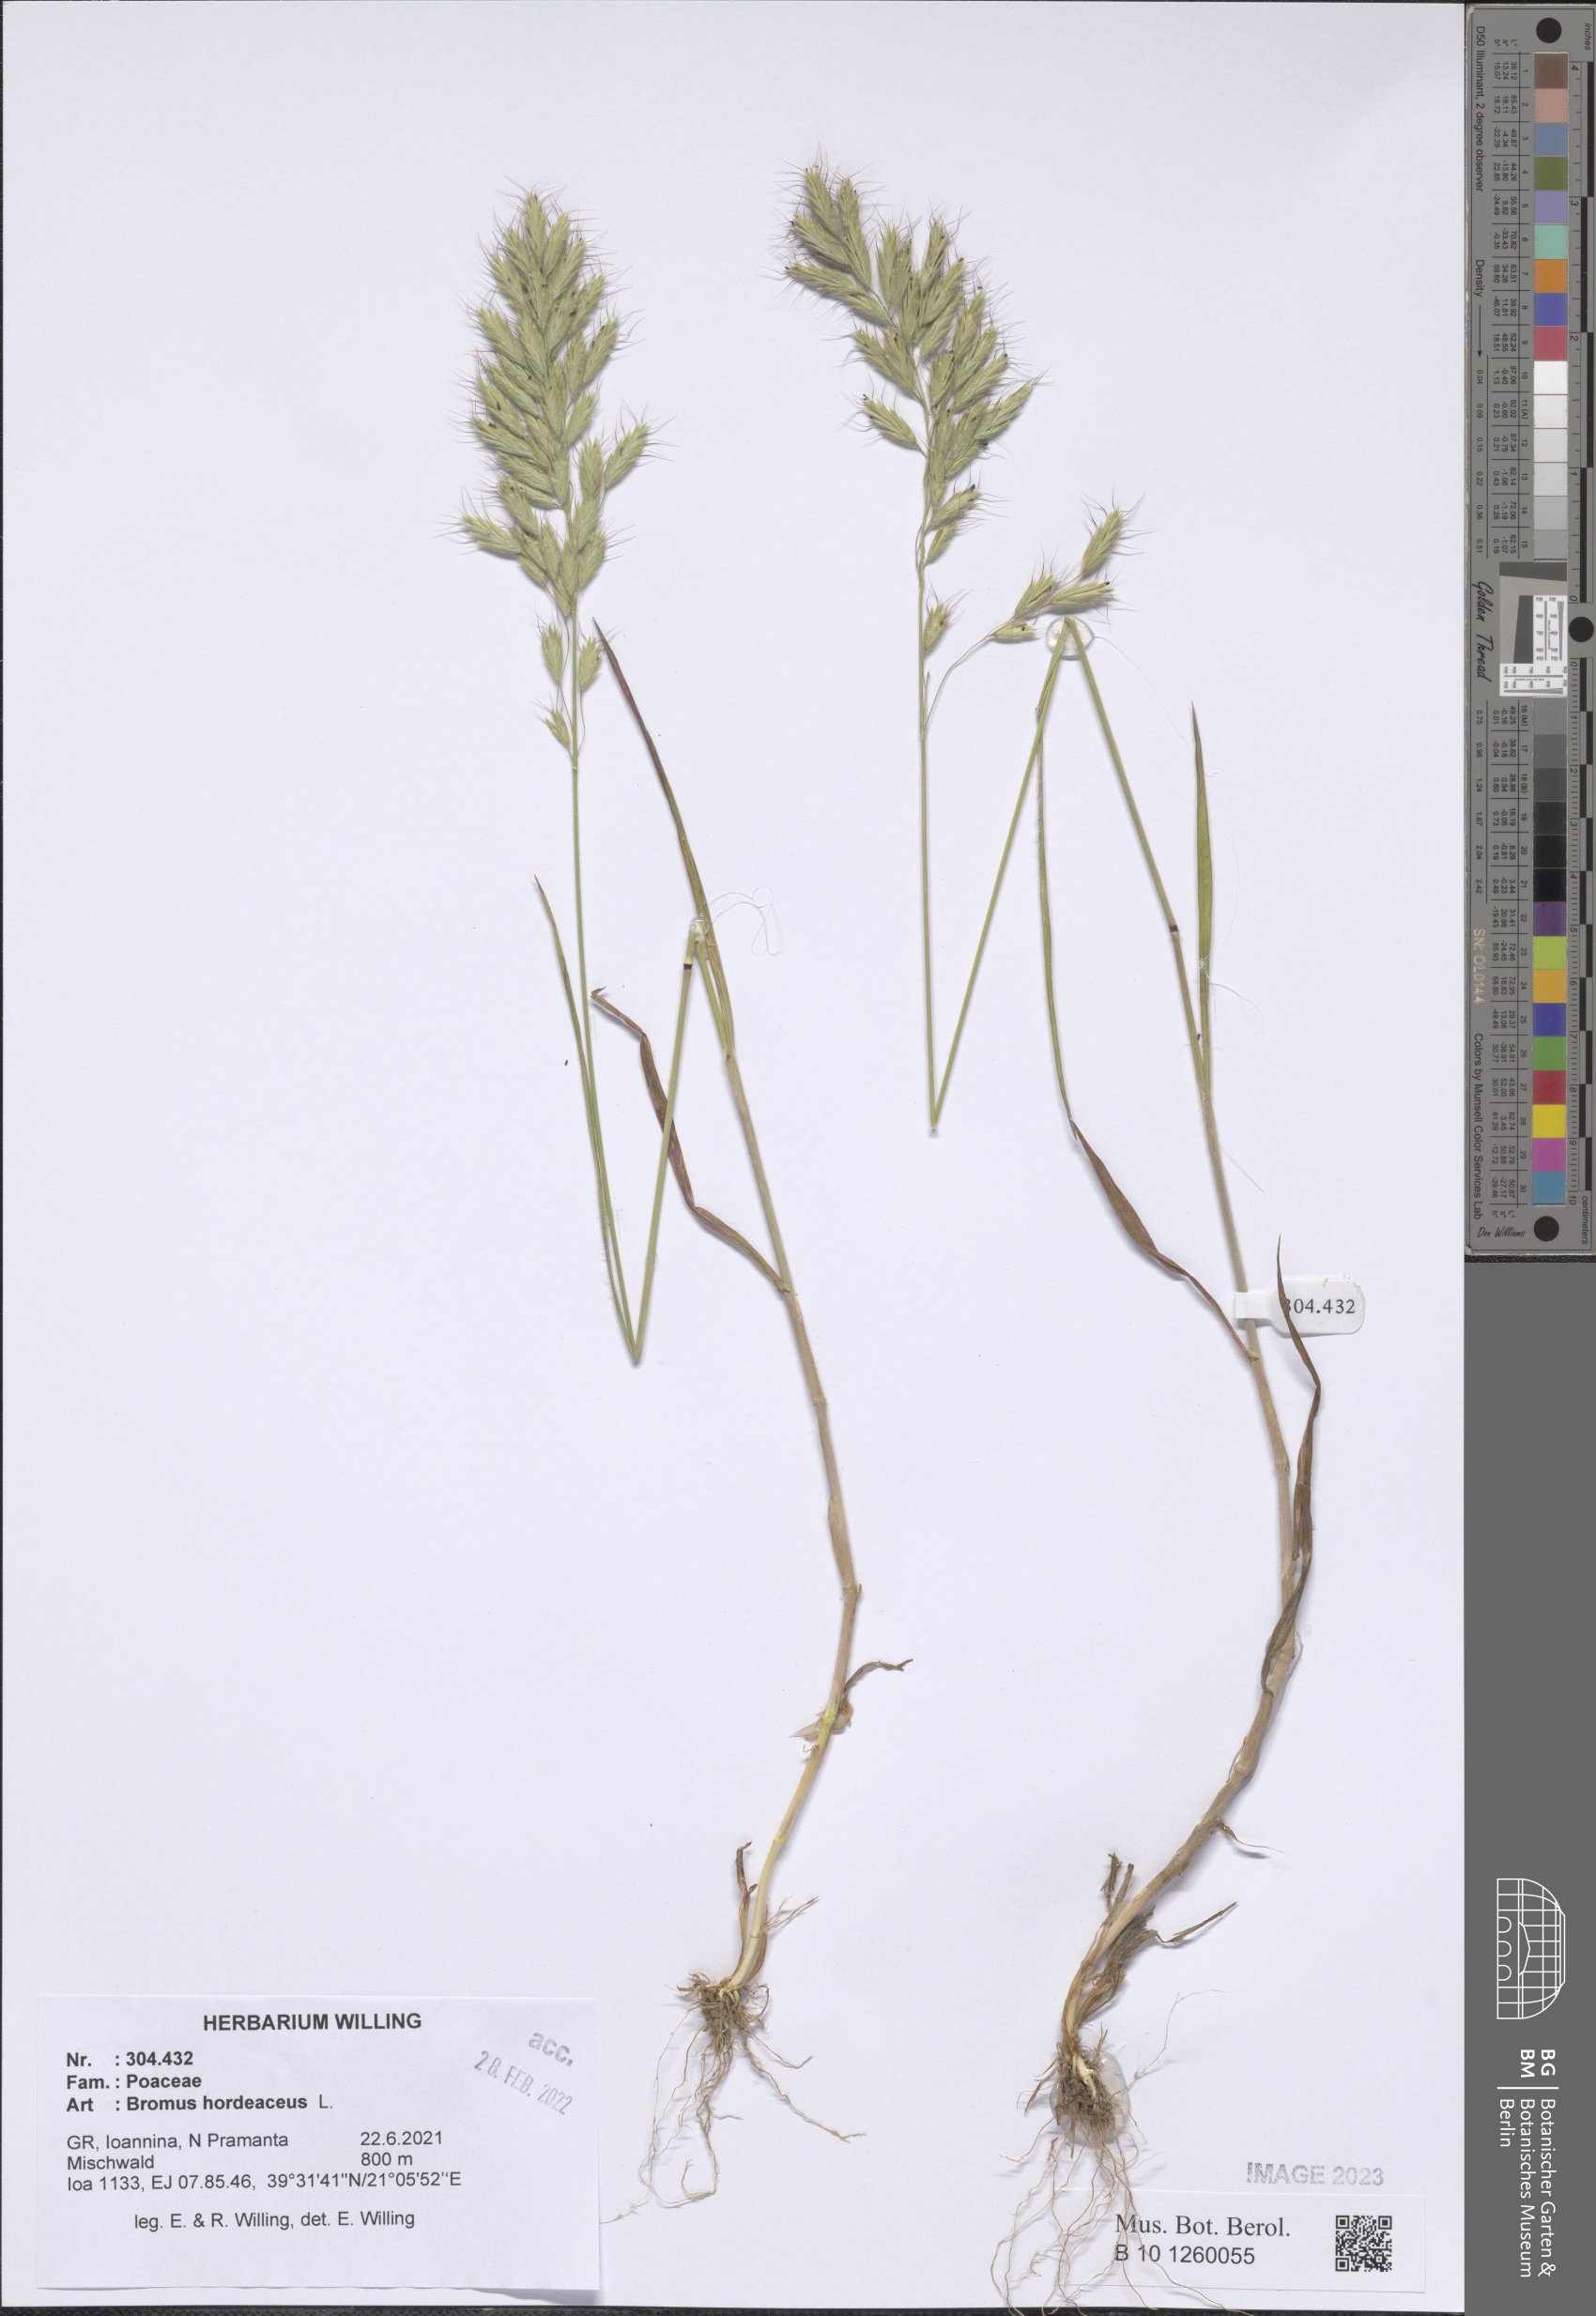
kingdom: Plantae
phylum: Tracheophyta
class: Liliopsida
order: Poales
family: Poaceae
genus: Bromus
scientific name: Bromus hordeaceus
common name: Soft brome
